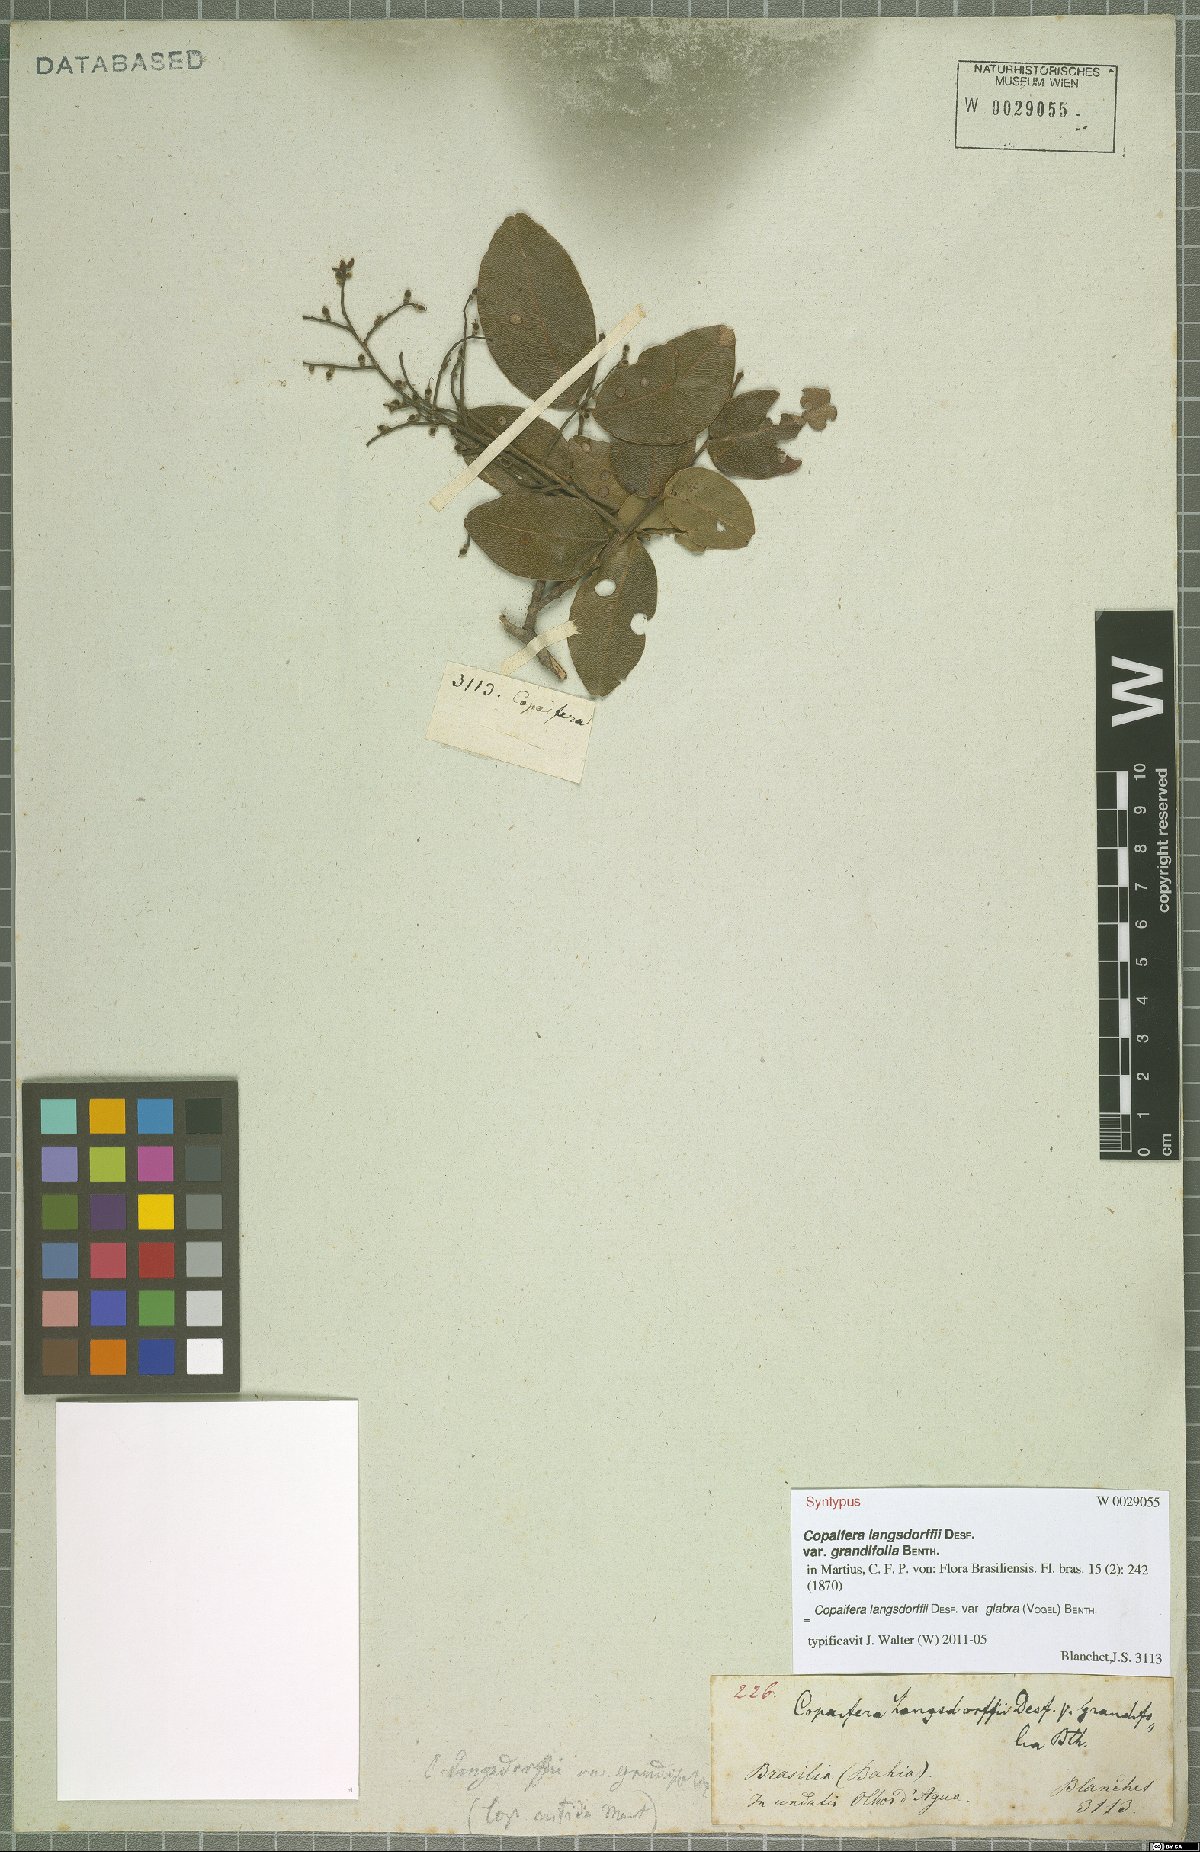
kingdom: Plantae
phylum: Tracheophyta
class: Magnoliopsida
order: Fabales
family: Fabaceae
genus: Copaifera
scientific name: Copaifera langsdorffii
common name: Brazilian diesel tree
